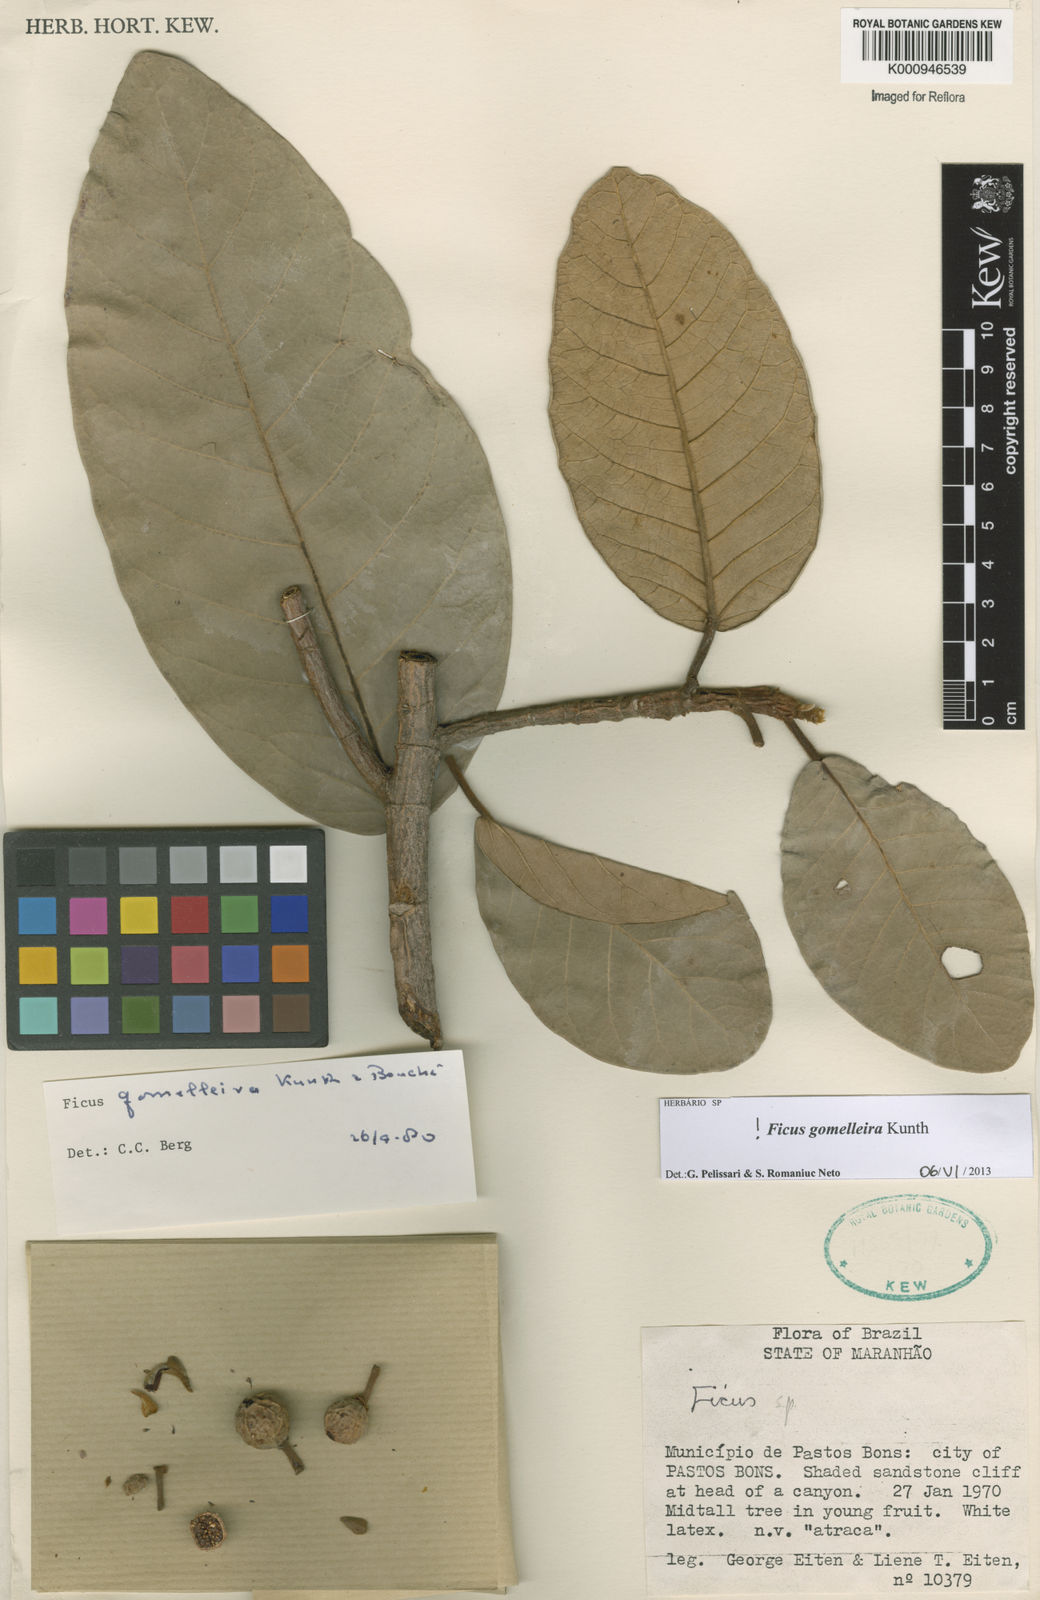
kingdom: Plantae
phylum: Tracheophyta
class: Magnoliopsida
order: Rosales
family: Moraceae
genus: Ficus
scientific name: Ficus gomelleira
